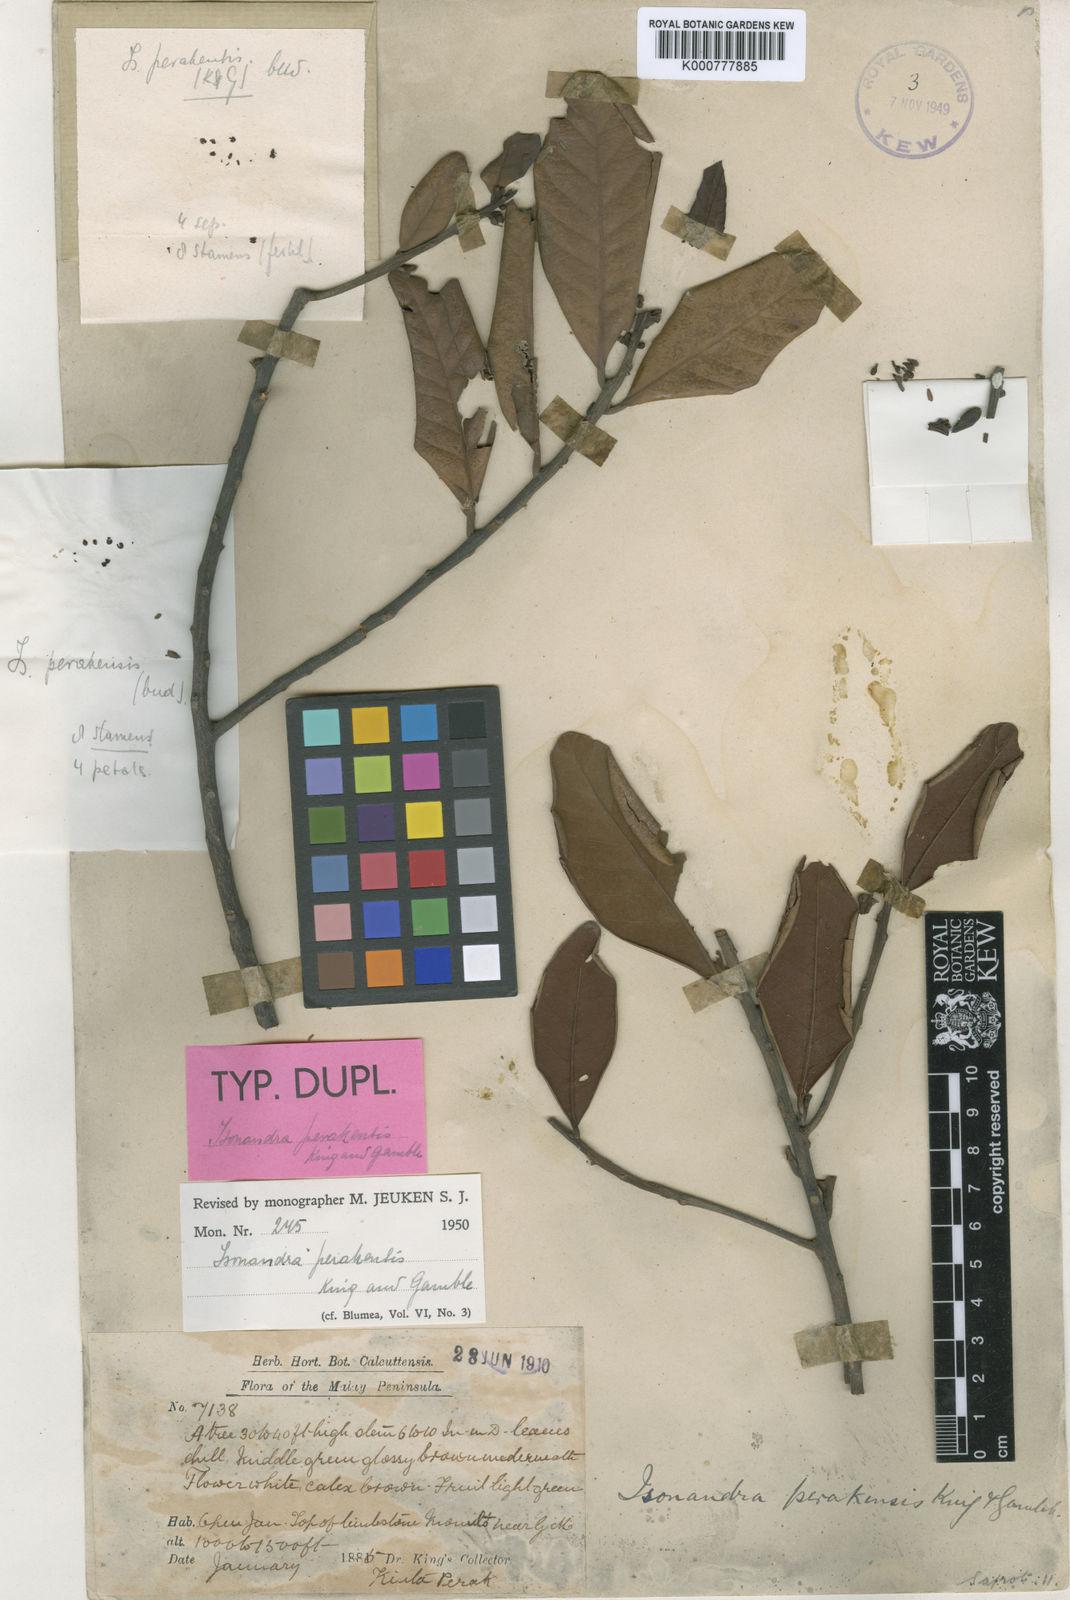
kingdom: Plantae
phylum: Tracheophyta
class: Magnoliopsida
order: Ericales
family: Sapotaceae
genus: Isonandra
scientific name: Isonandra perakensis
